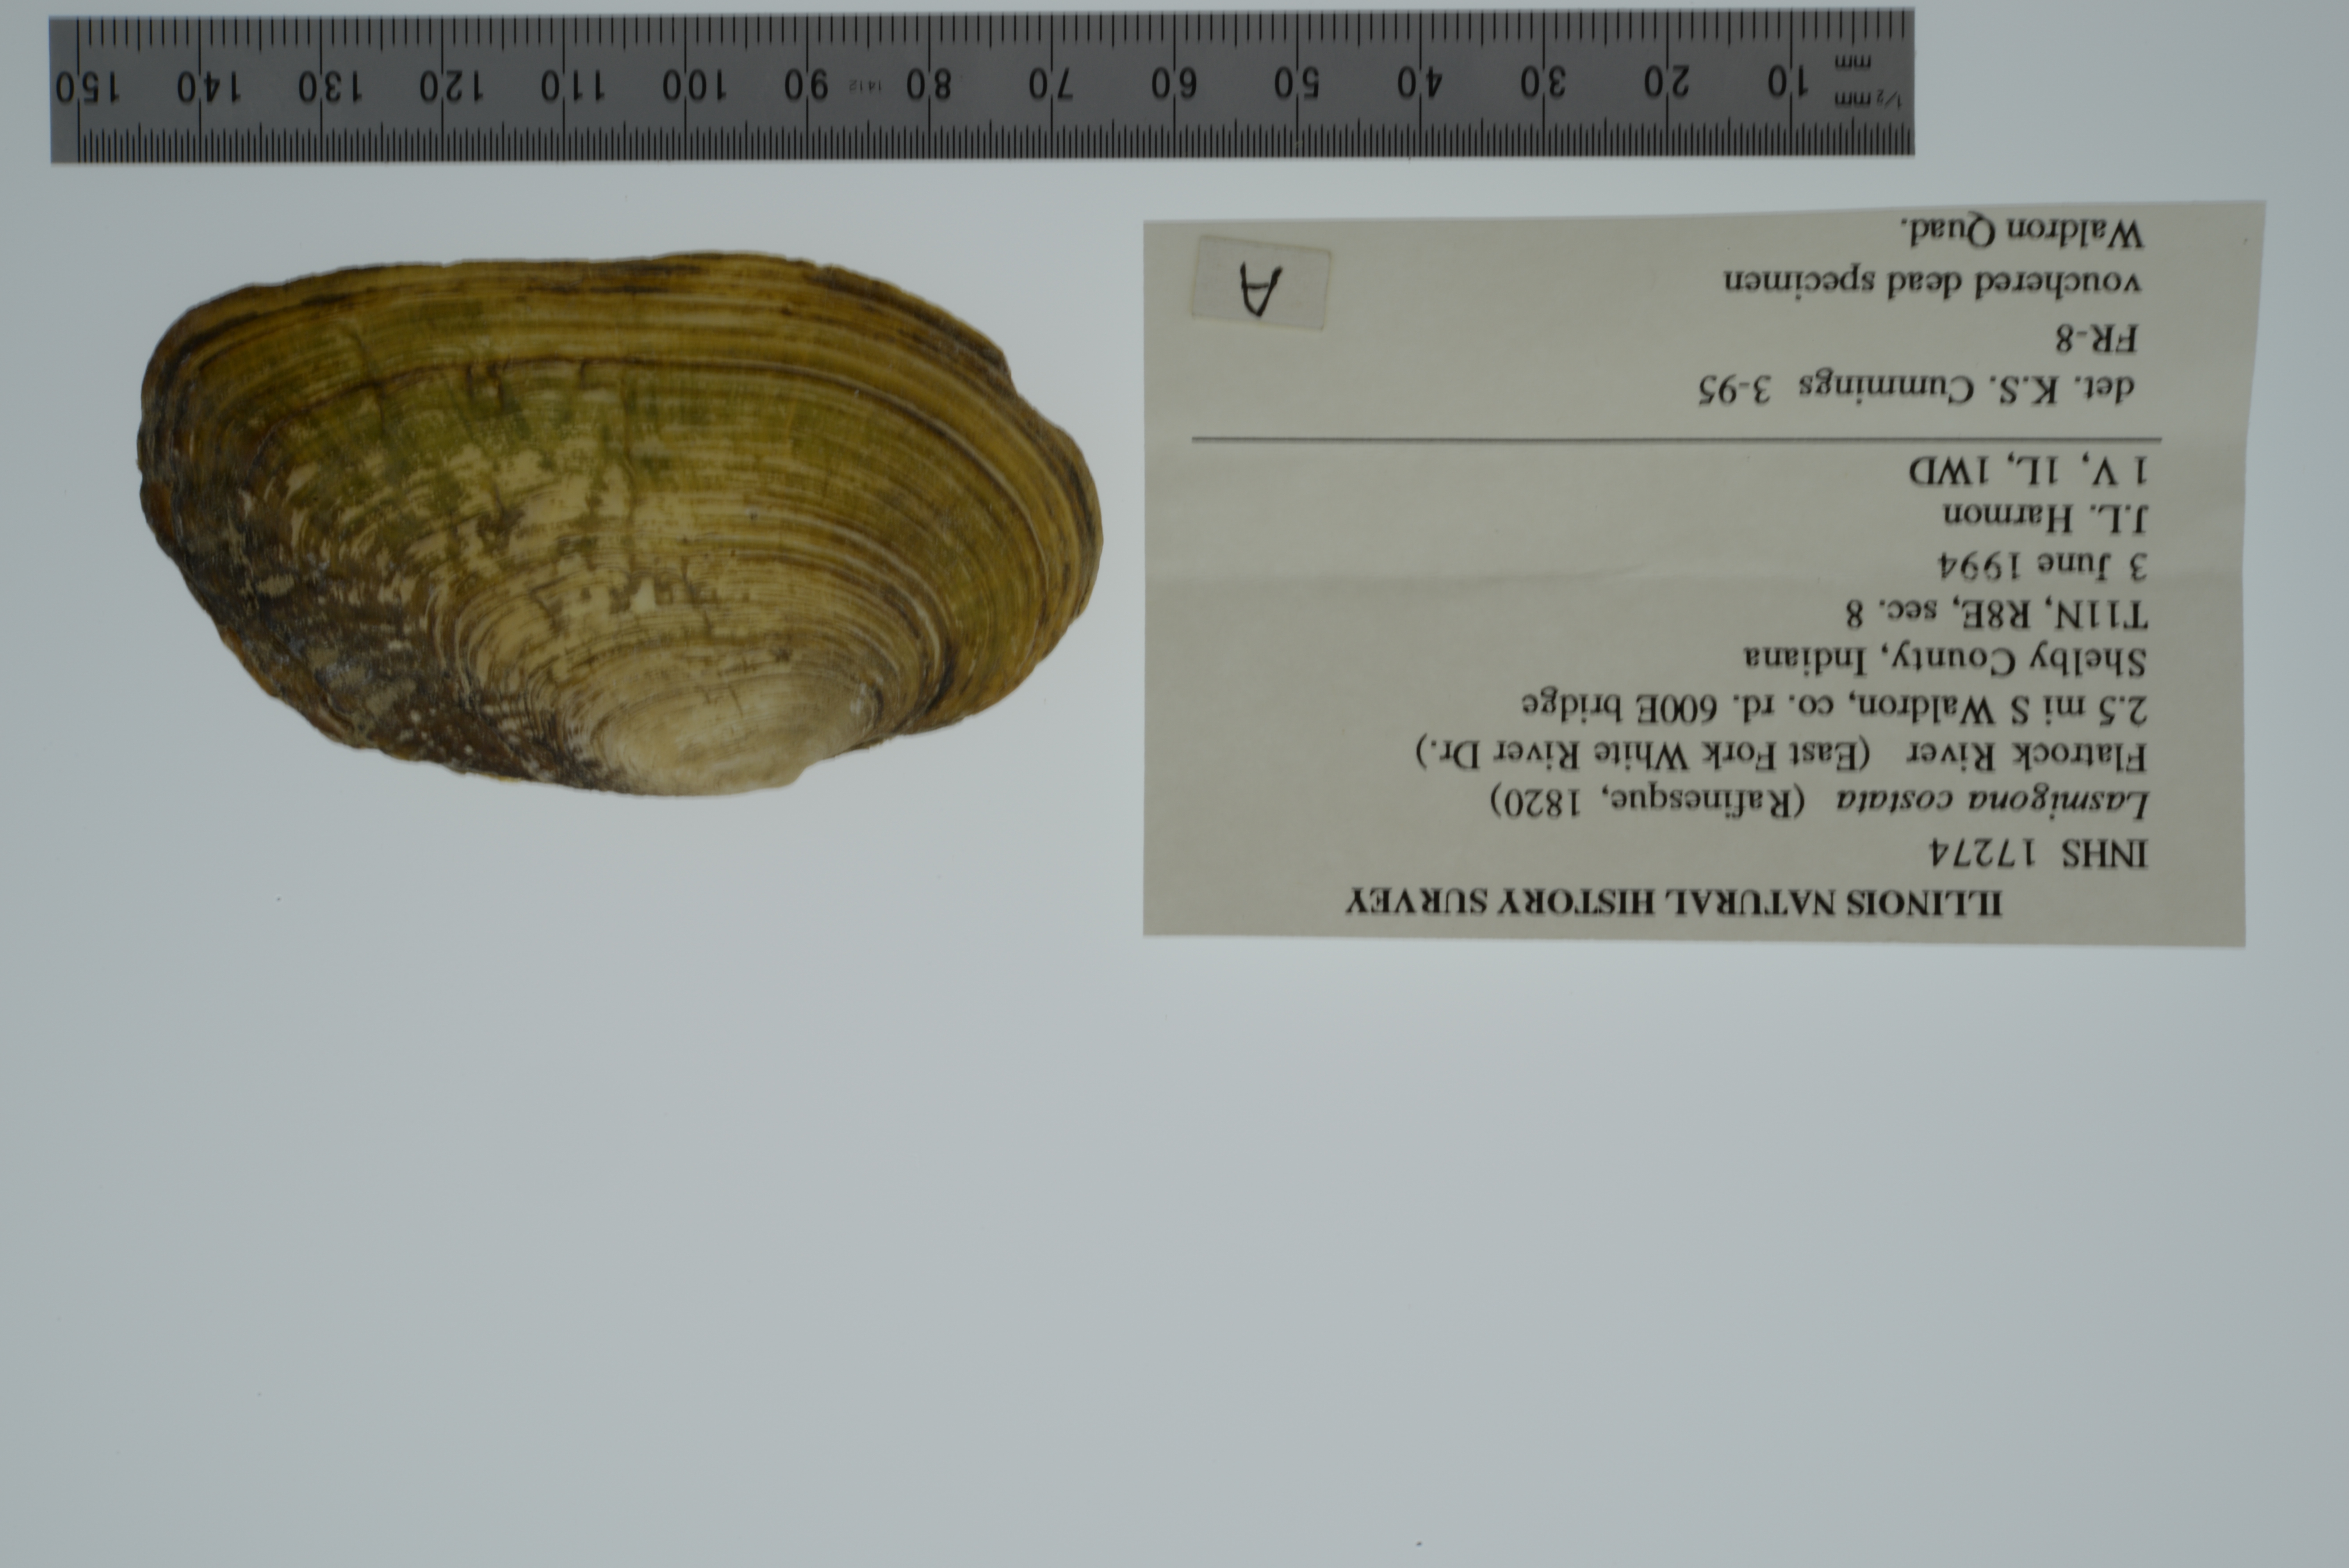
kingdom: Animalia
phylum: Mollusca
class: Bivalvia
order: Unionida
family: Unionidae
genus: Lasmigona
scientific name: Lasmigona costata
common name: Flutedshell
